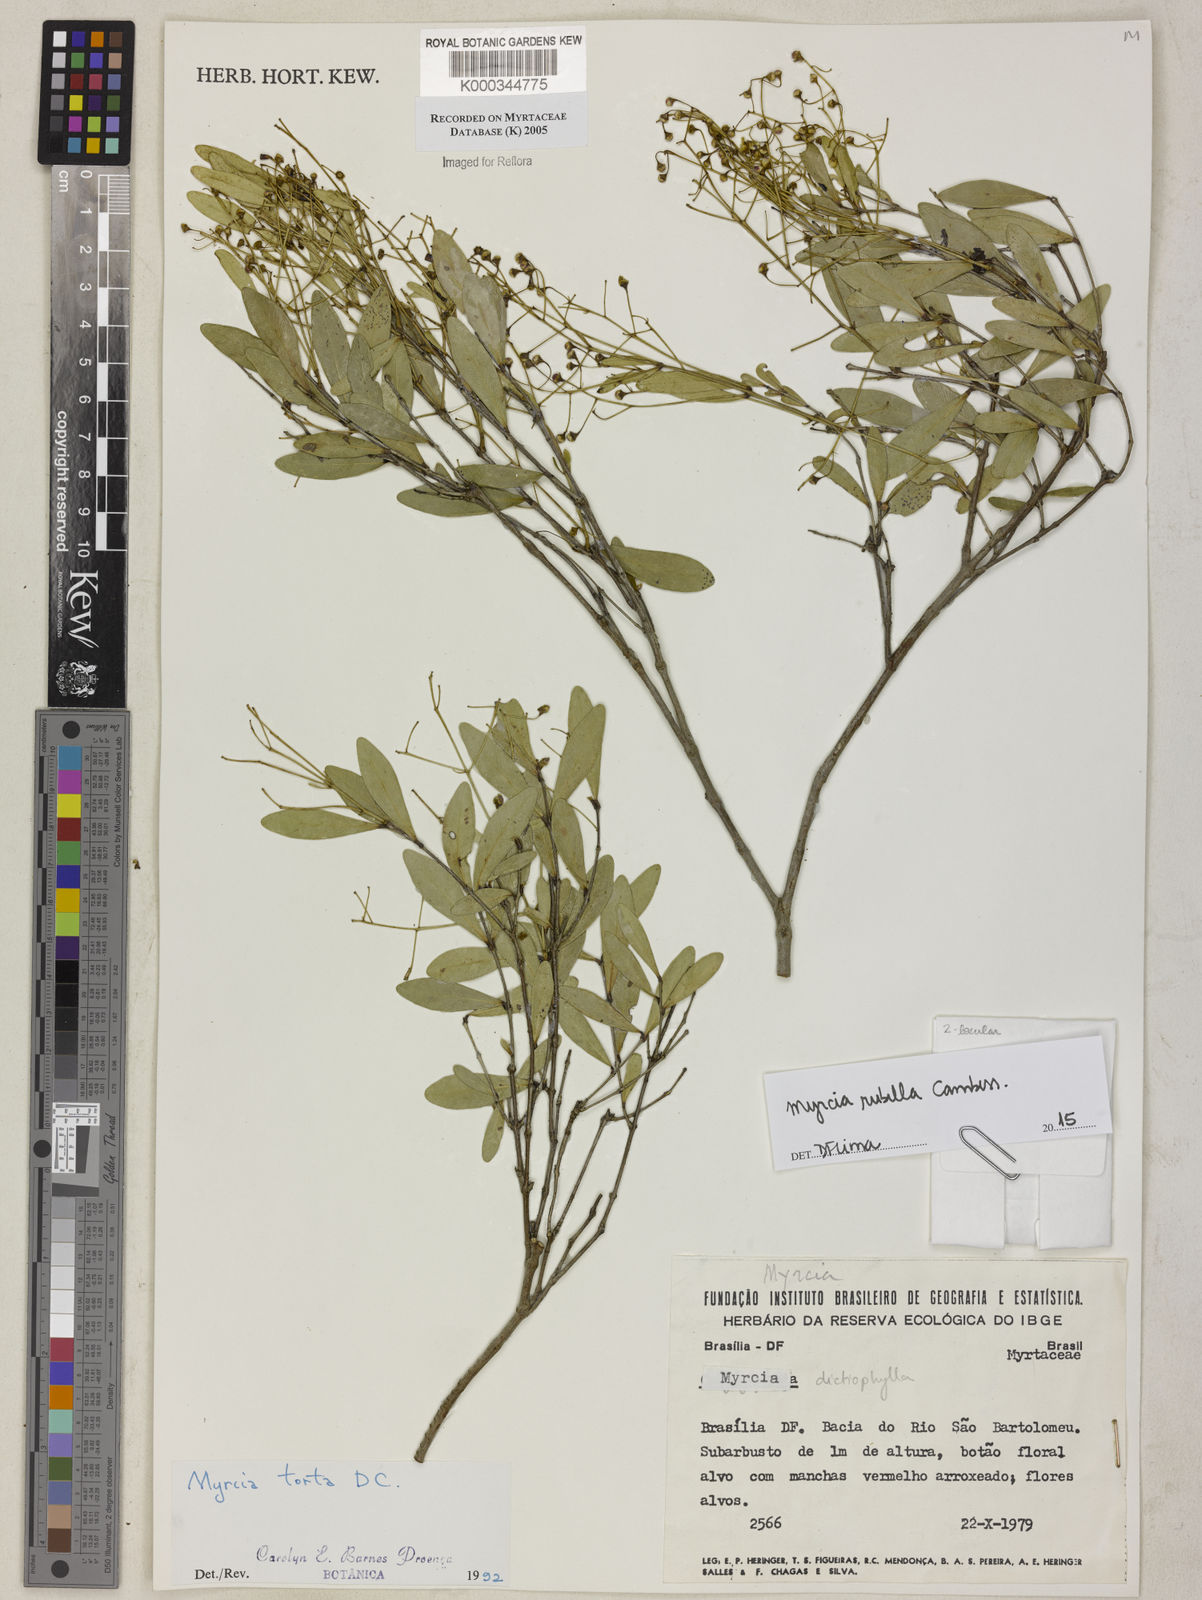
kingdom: Plantae
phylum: Tracheophyta
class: Magnoliopsida
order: Myrtales
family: Myrtaceae
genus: Myrcia
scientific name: Myrcia guianensis
